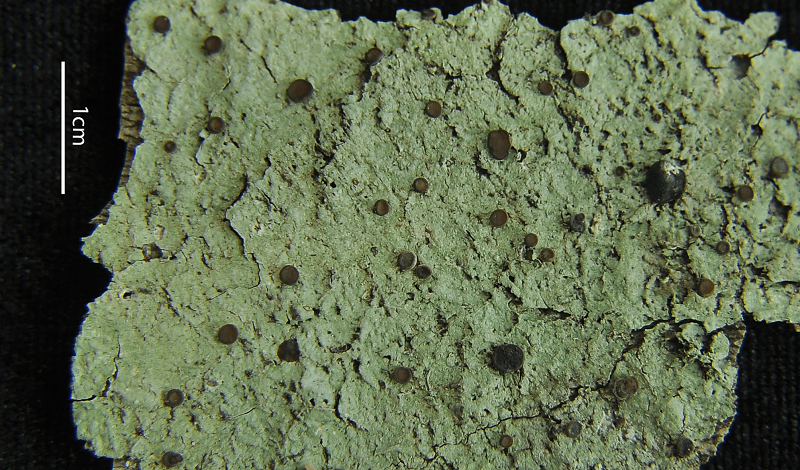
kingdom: Fungi
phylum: Ascomycota
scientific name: Ascomycota
